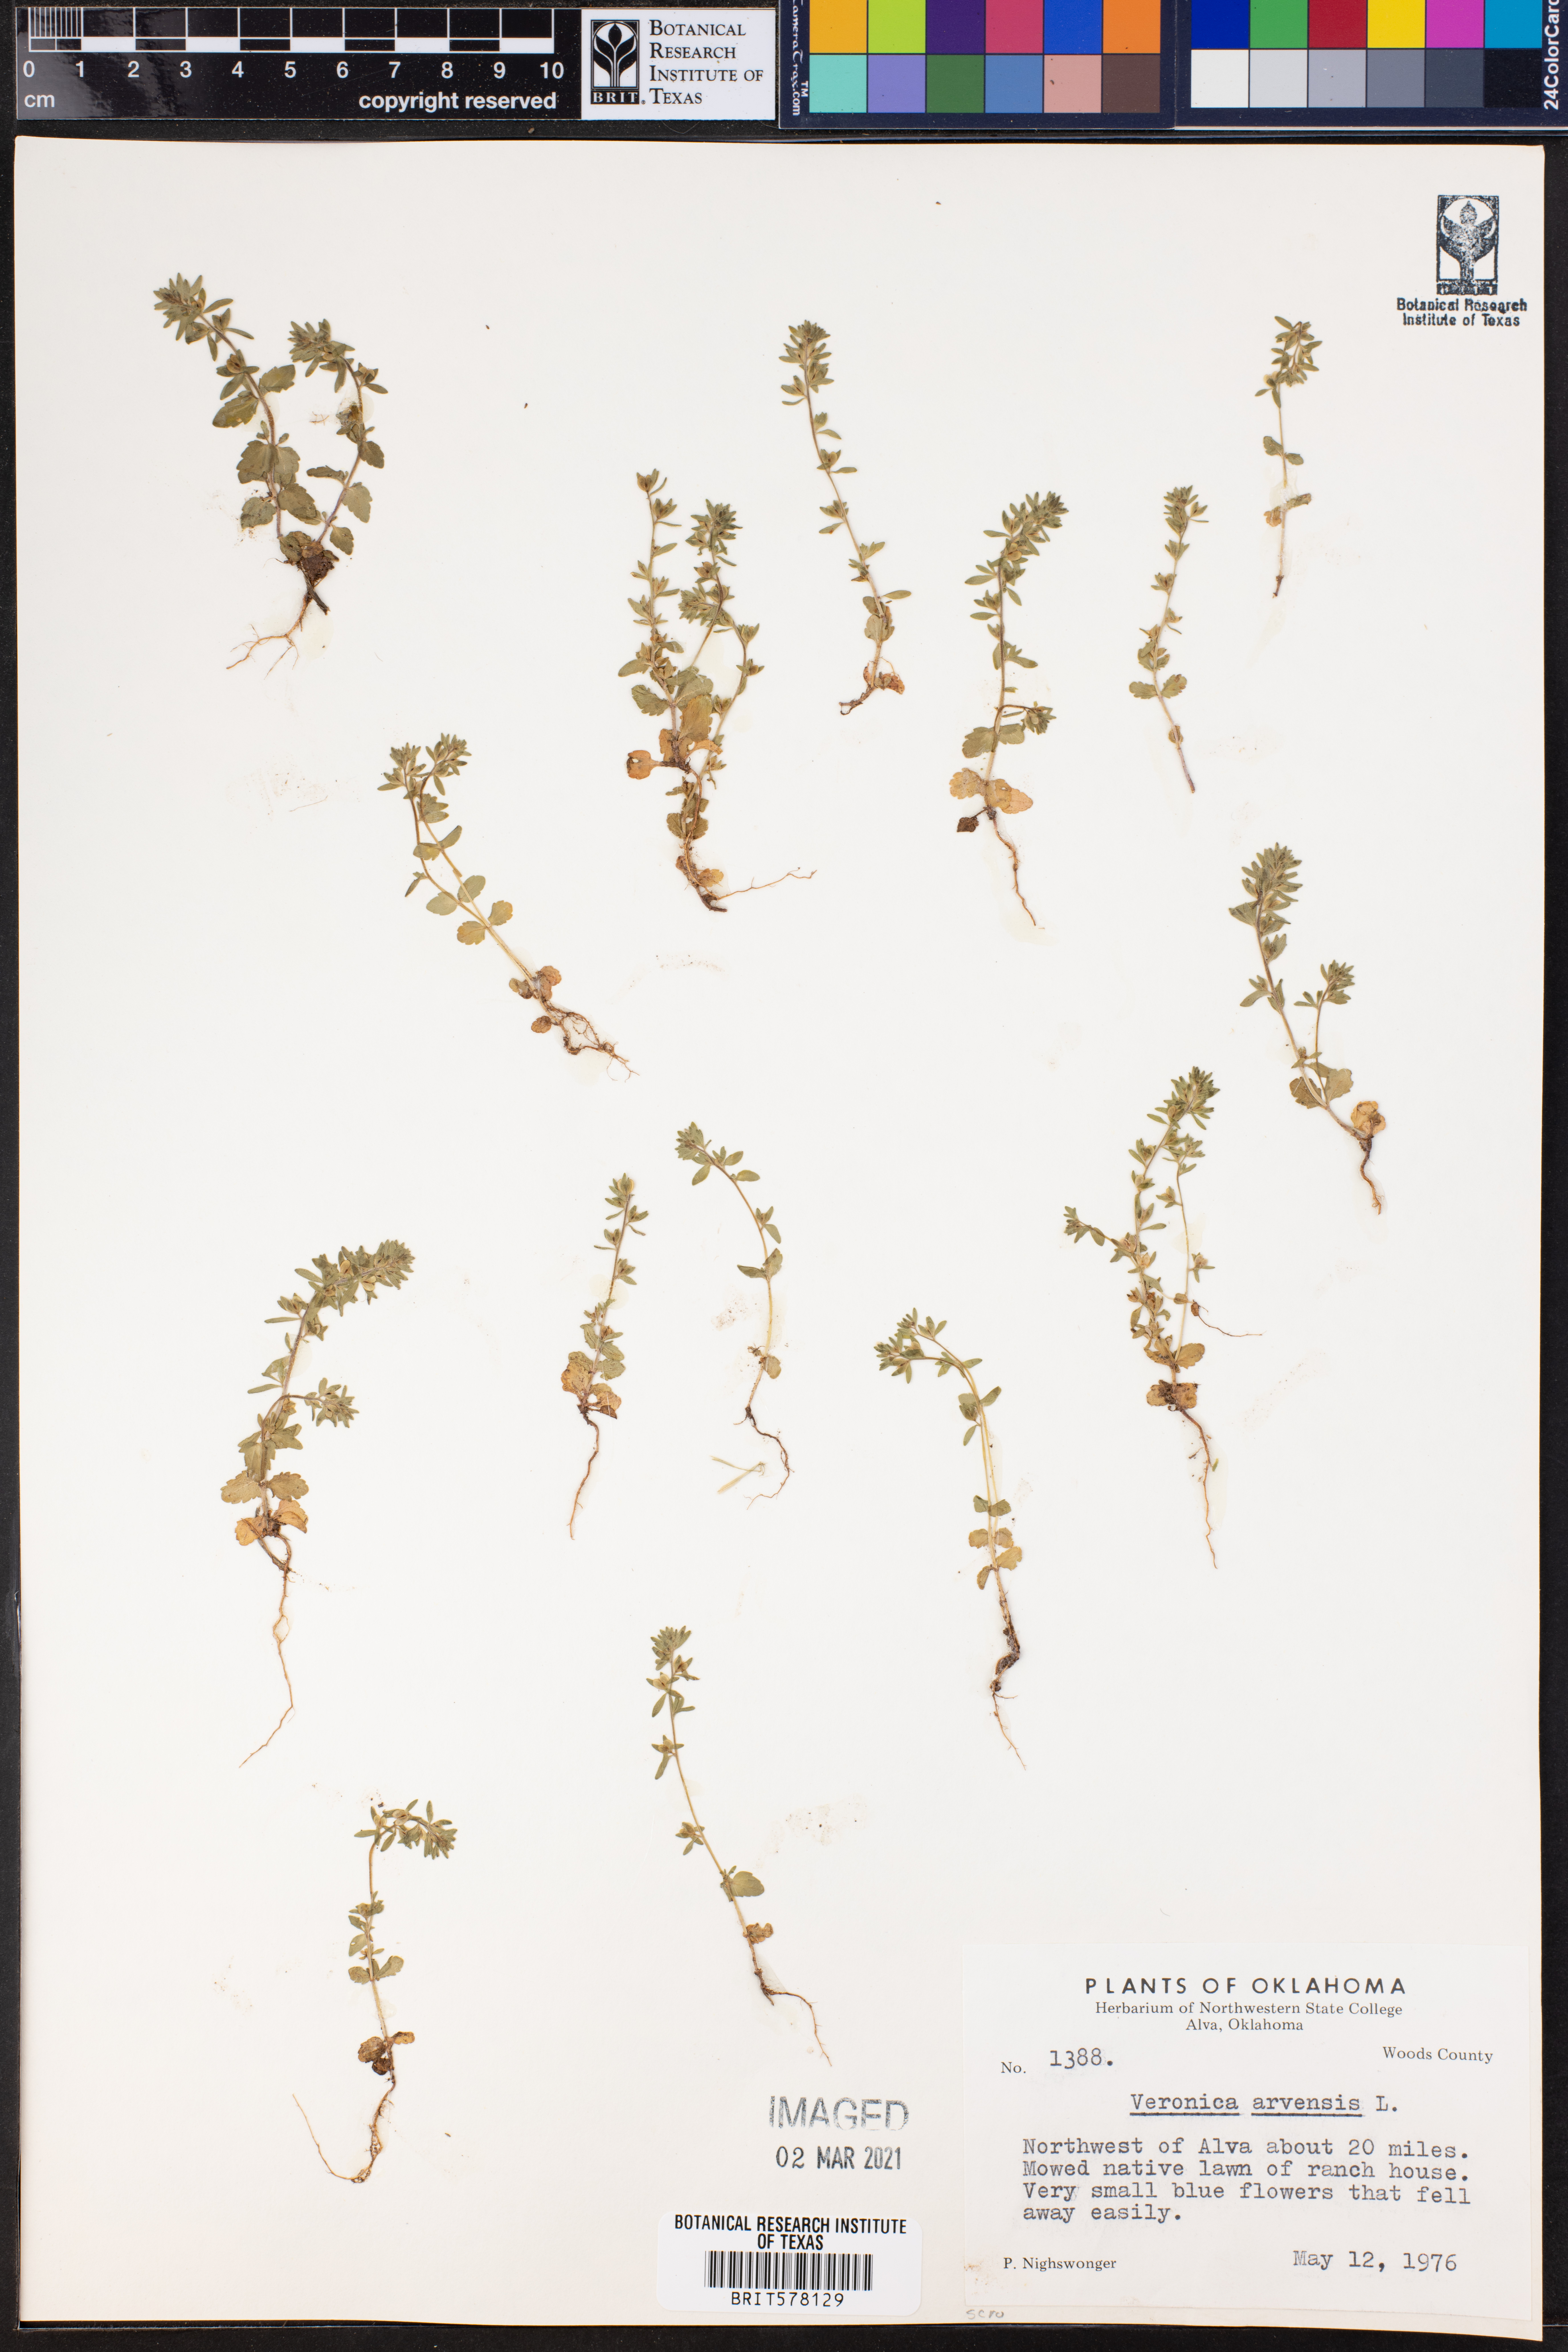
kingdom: Plantae
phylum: Tracheophyta
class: Magnoliopsida
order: Lamiales
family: Plantaginaceae
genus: Veronica
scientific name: Veronica arvensis
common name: Corn speedwell
